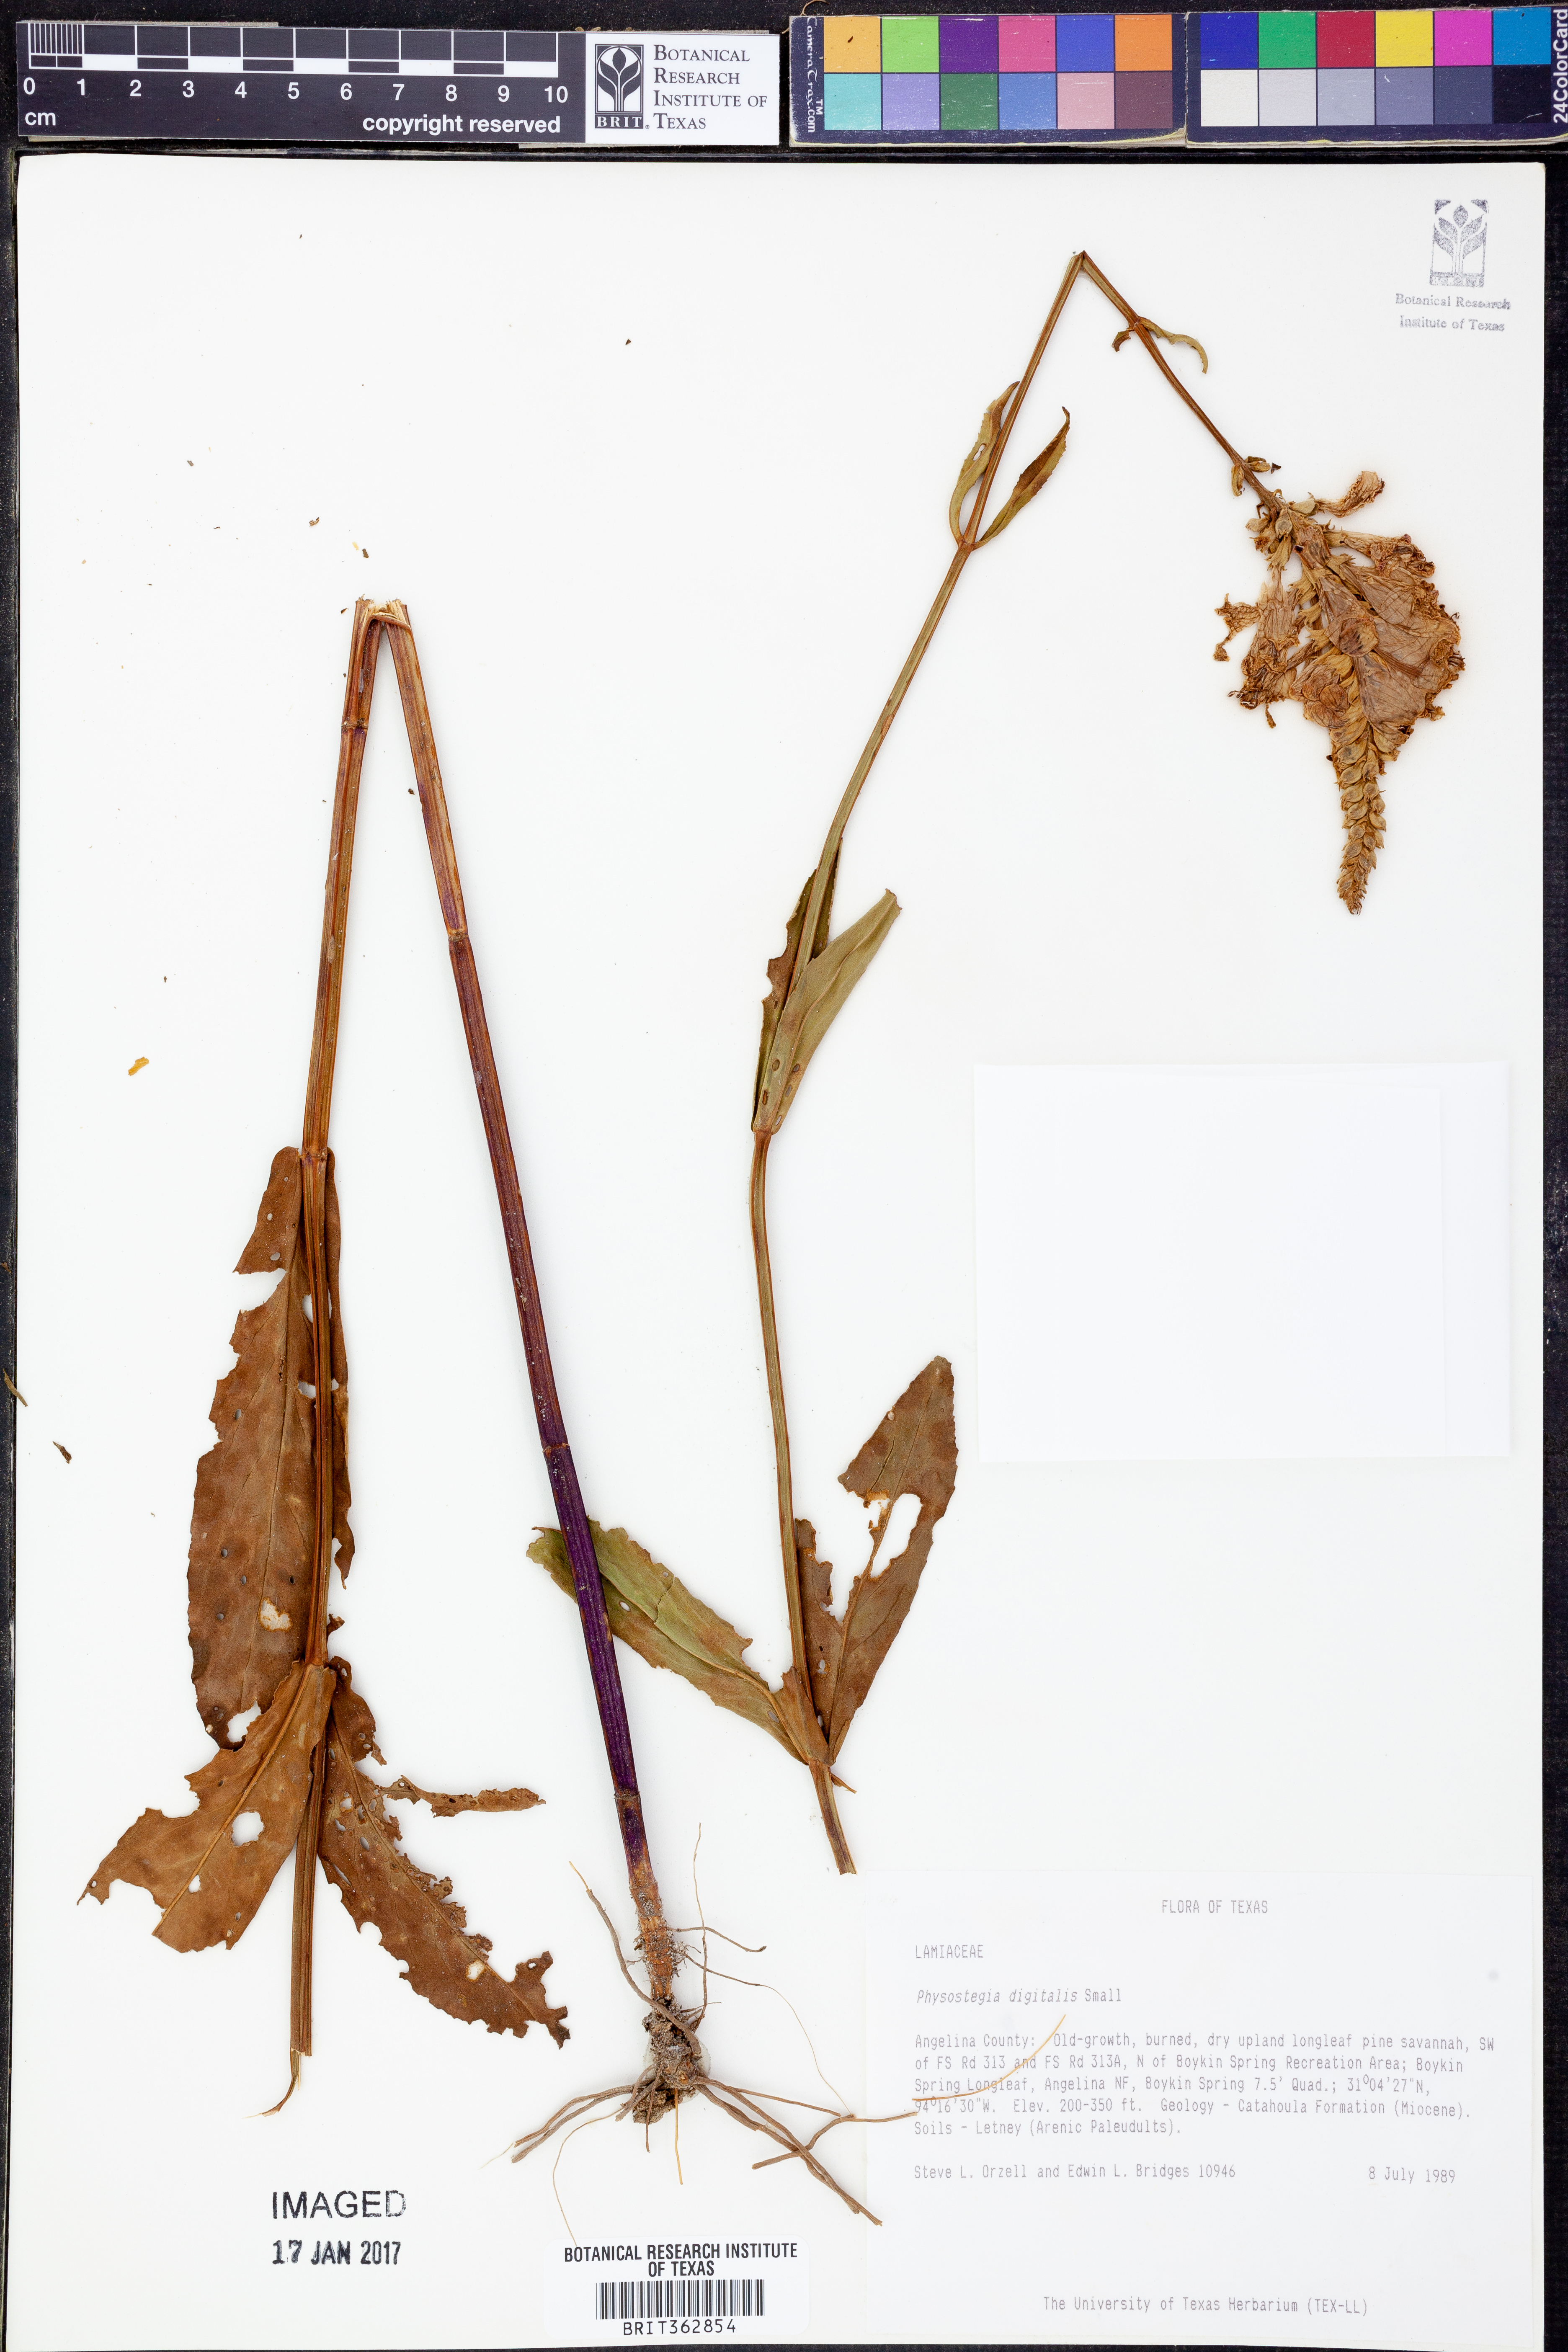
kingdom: Plantae
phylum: Tracheophyta
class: Magnoliopsida
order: Lamiales
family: Lamiaceae
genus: Physostegia
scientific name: Physostegia digitalis
